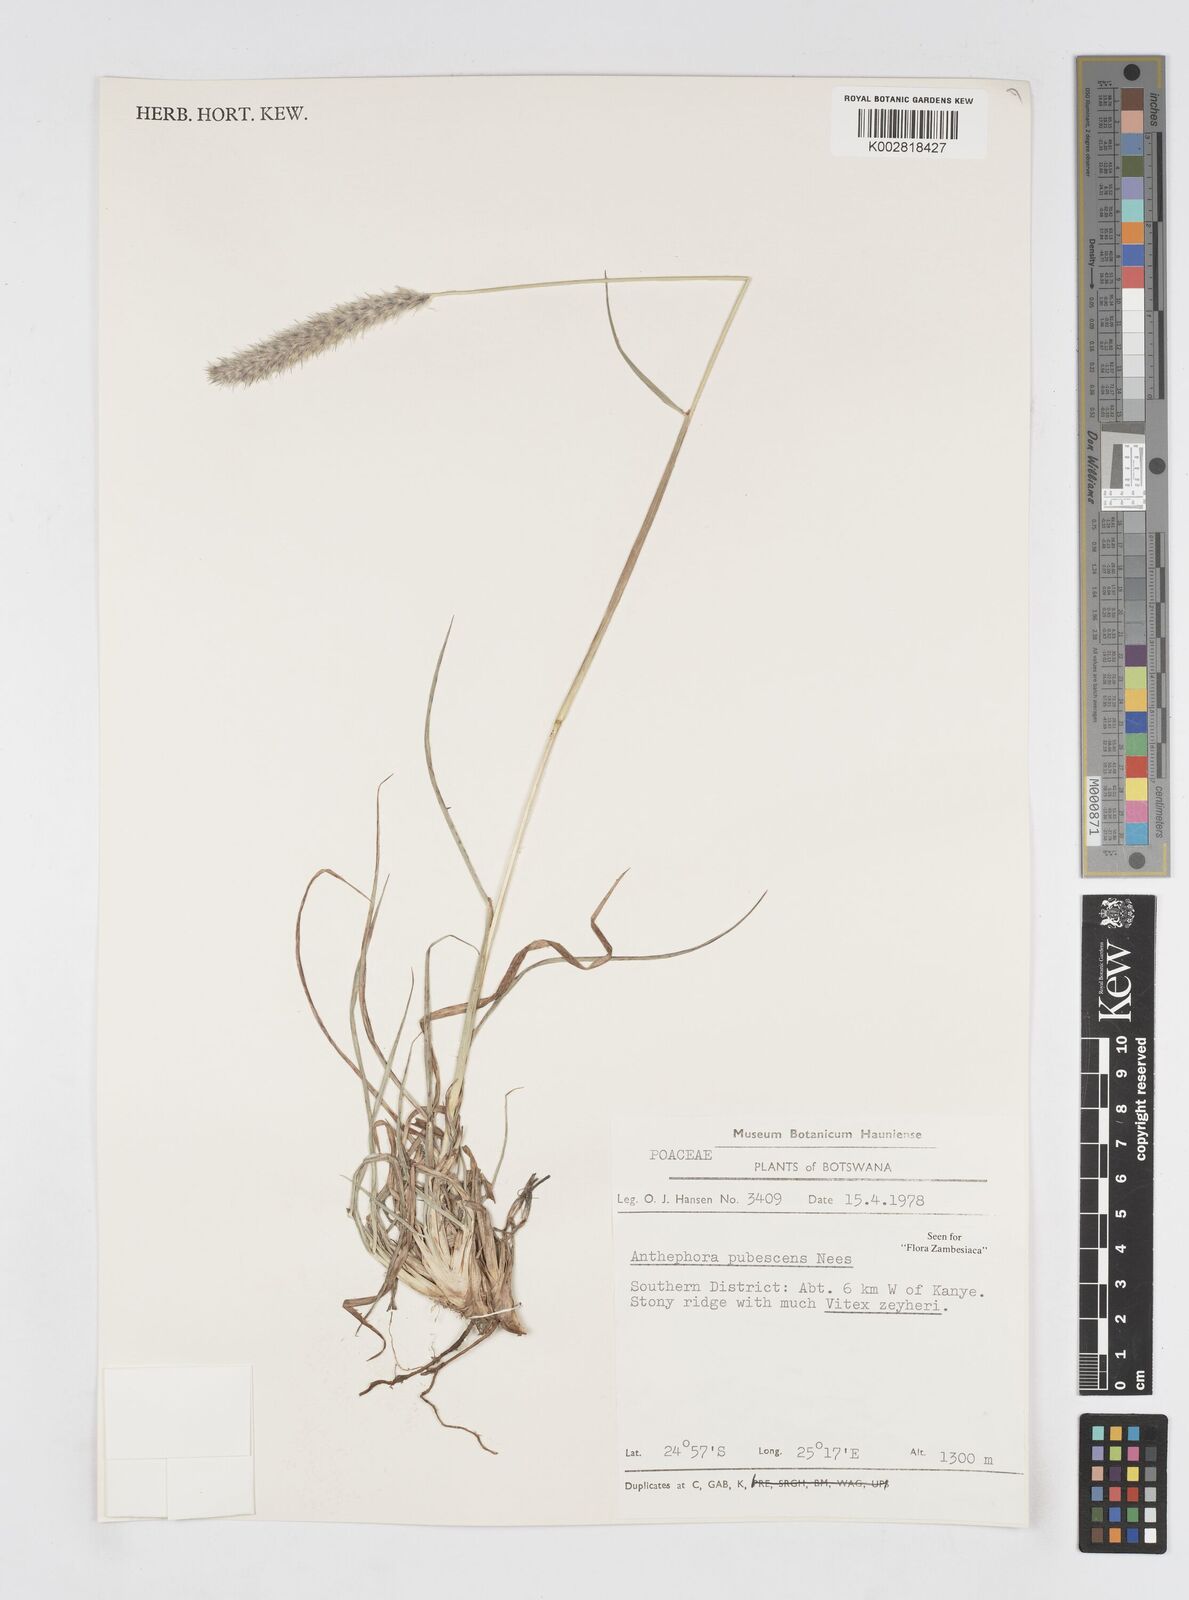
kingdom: Plantae
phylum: Tracheophyta
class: Liliopsida
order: Poales
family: Poaceae
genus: Anthephora
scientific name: Anthephora pubescens
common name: Wool grass
